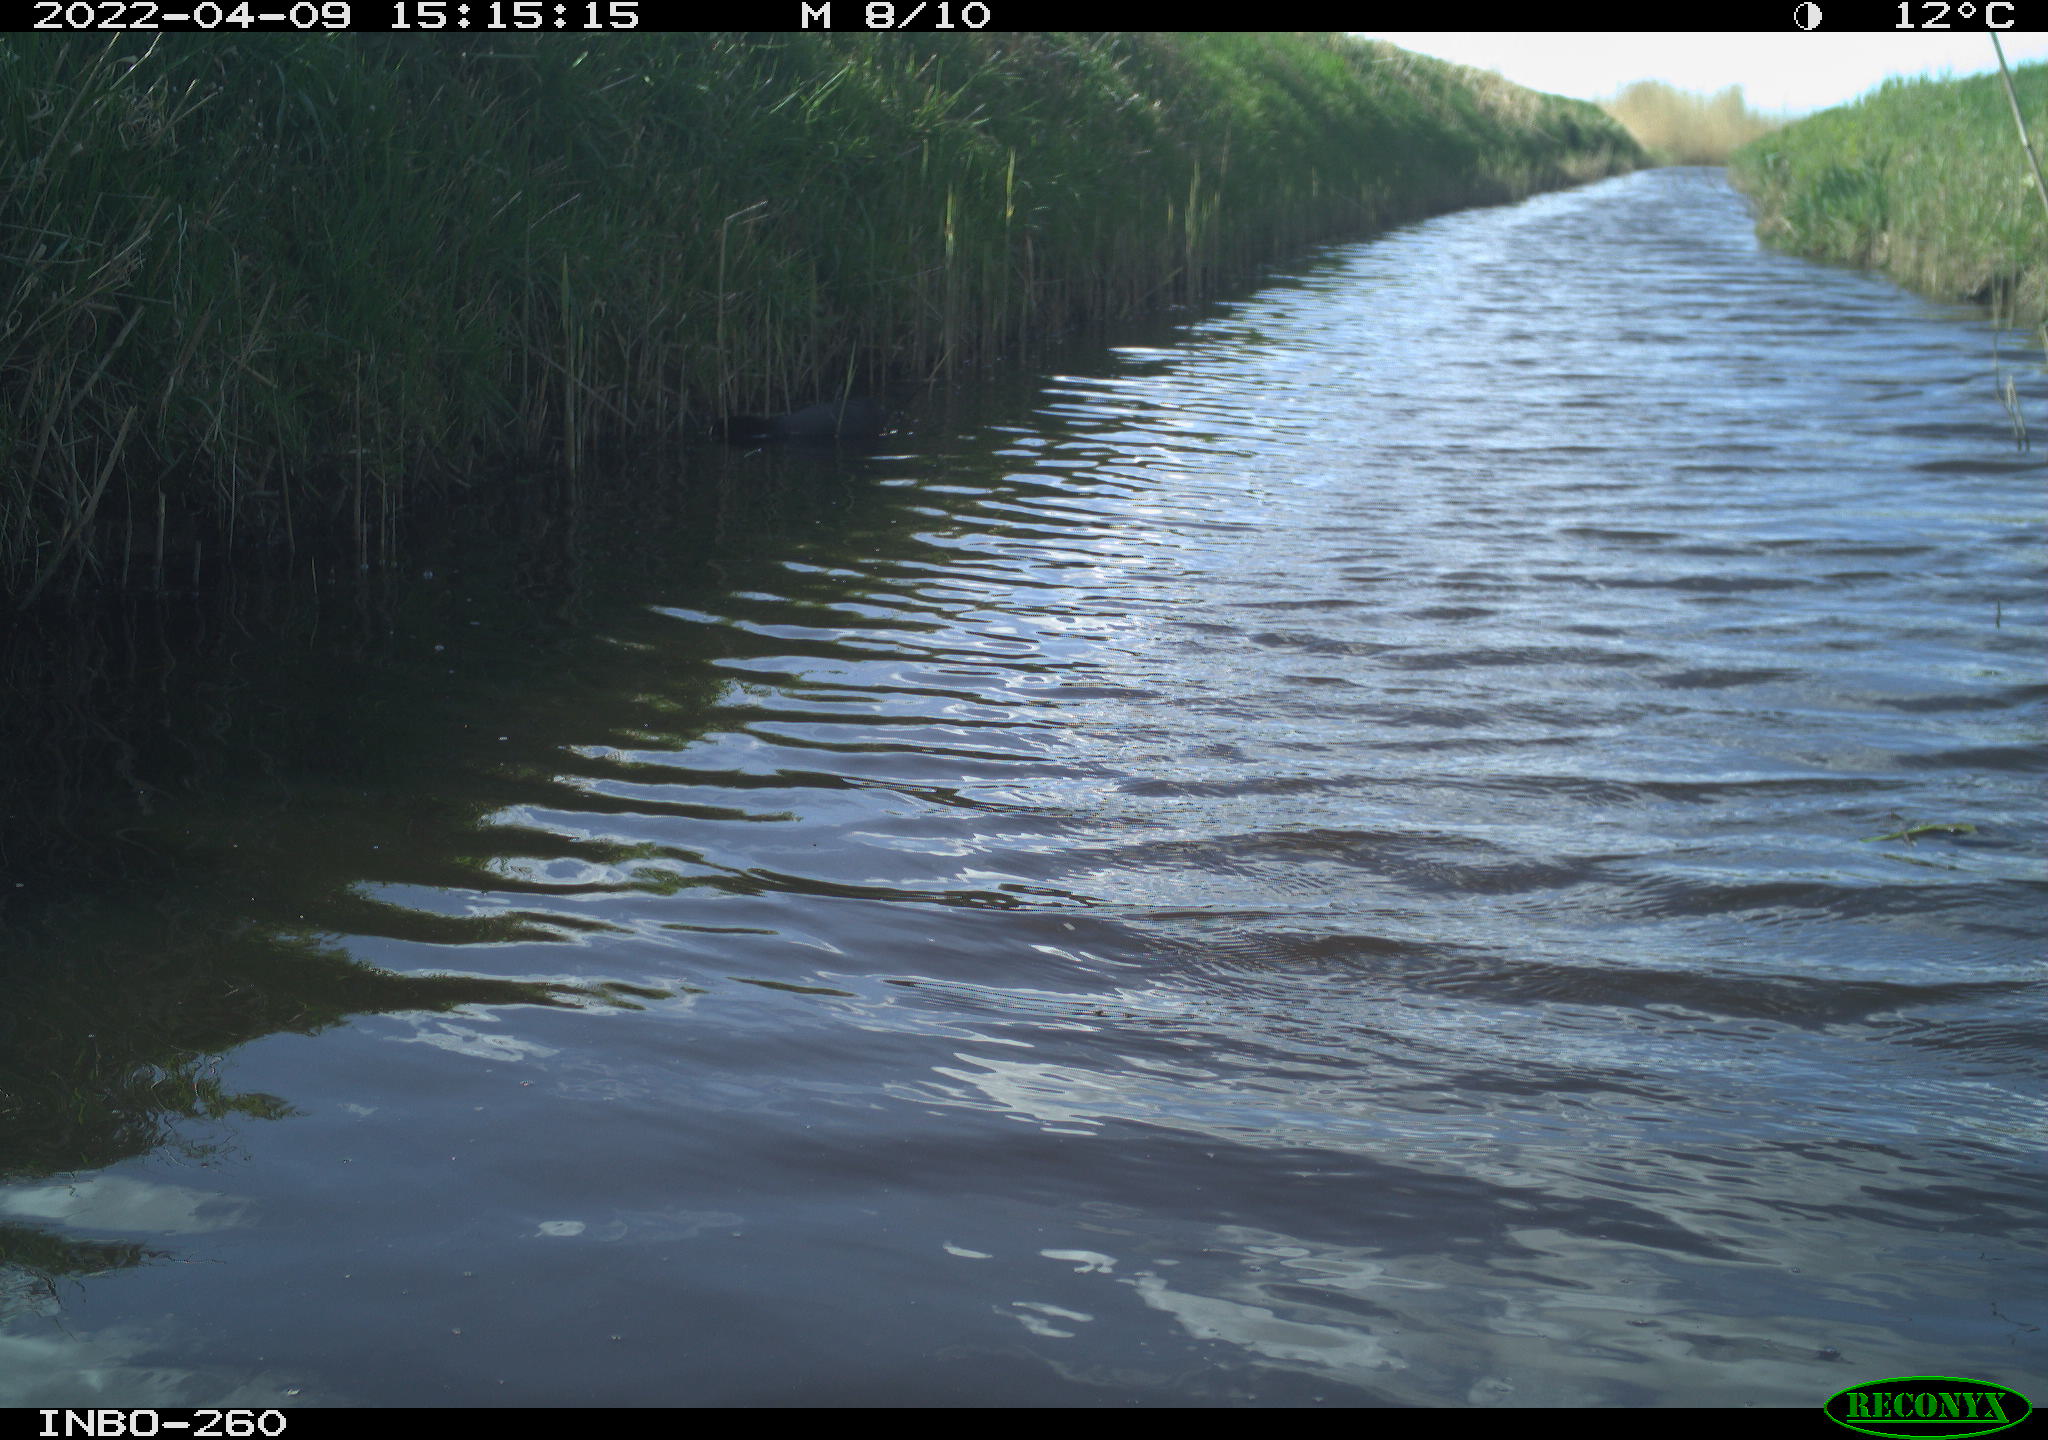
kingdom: Animalia
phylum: Chordata
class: Aves
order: Gruiformes
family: Rallidae
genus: Fulica
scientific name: Fulica atra
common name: Eurasian coot
